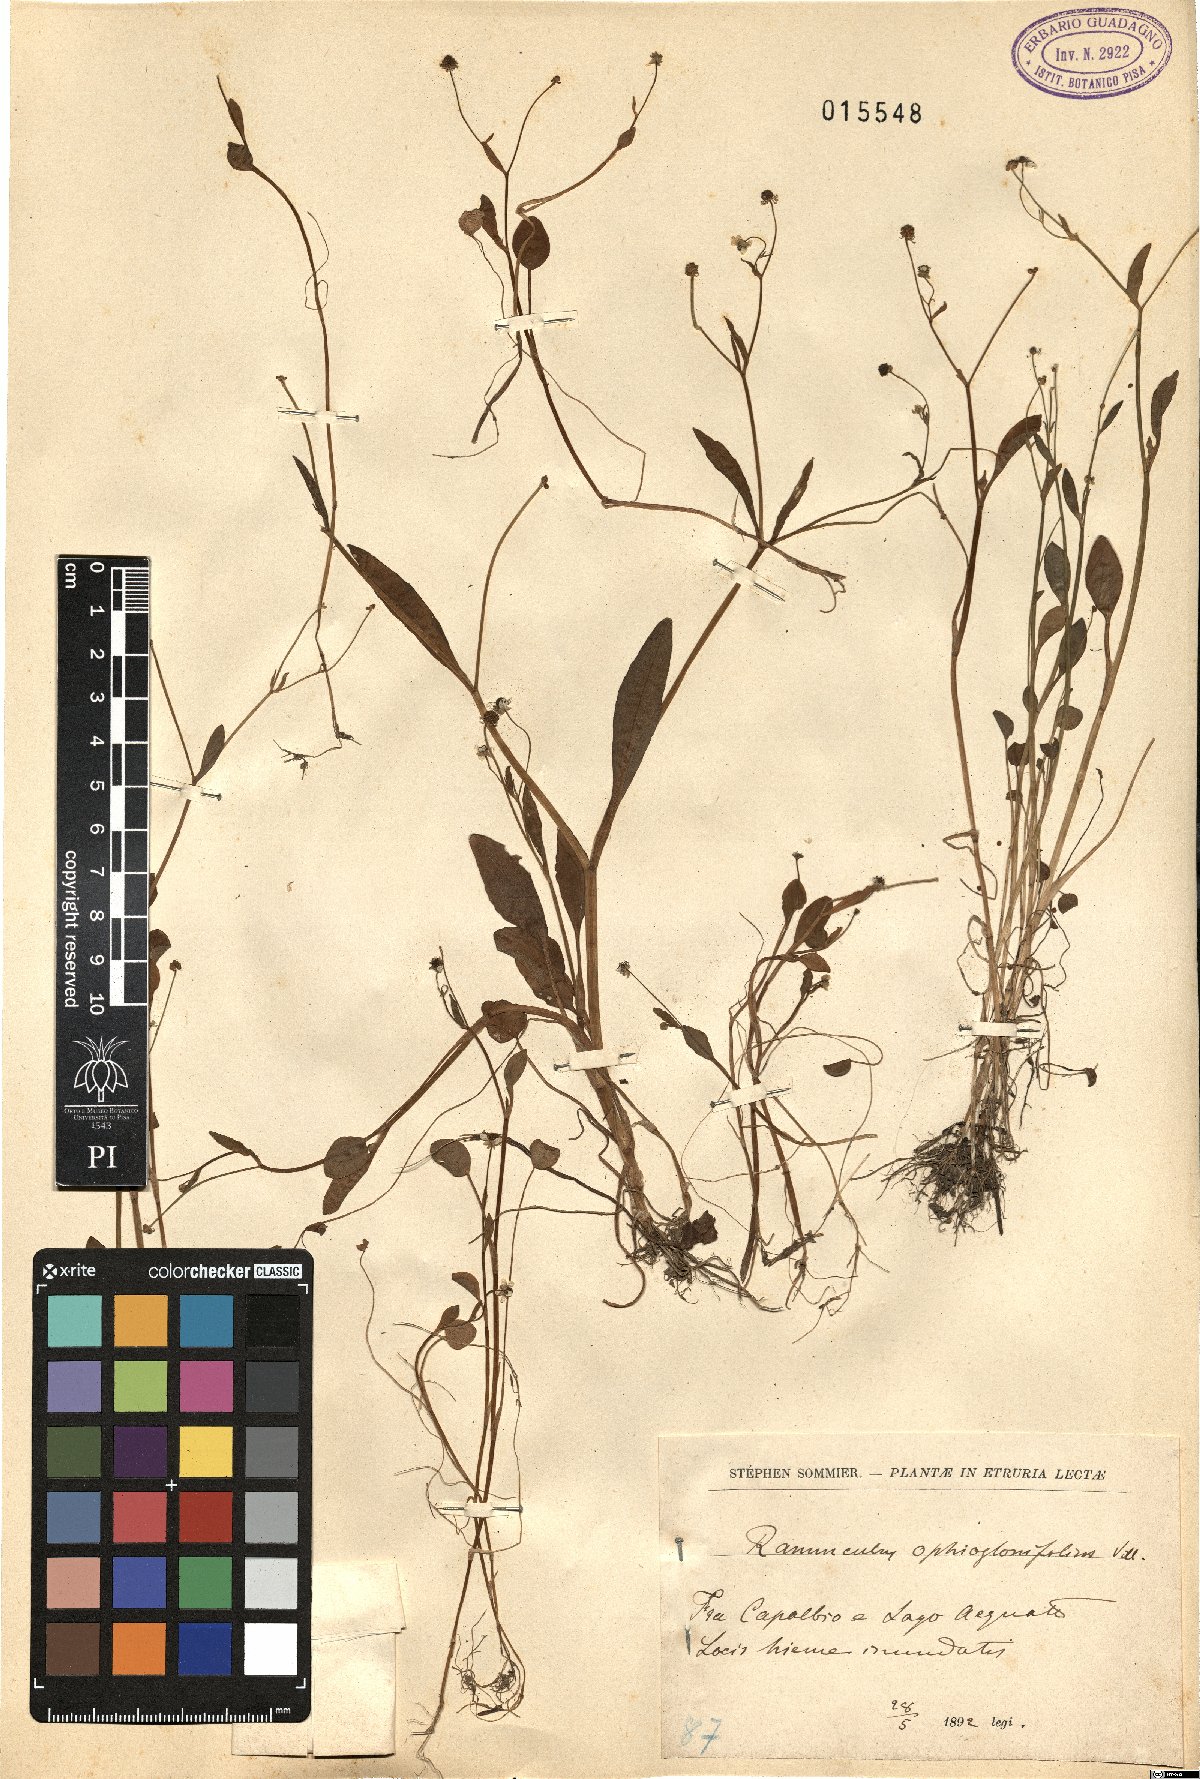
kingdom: Plantae
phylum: Tracheophyta
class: Magnoliopsida
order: Ranunculales
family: Ranunculaceae
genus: Ranunculus
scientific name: Ranunculus ophioglossifolius
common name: Adder's-tongue spearwort
